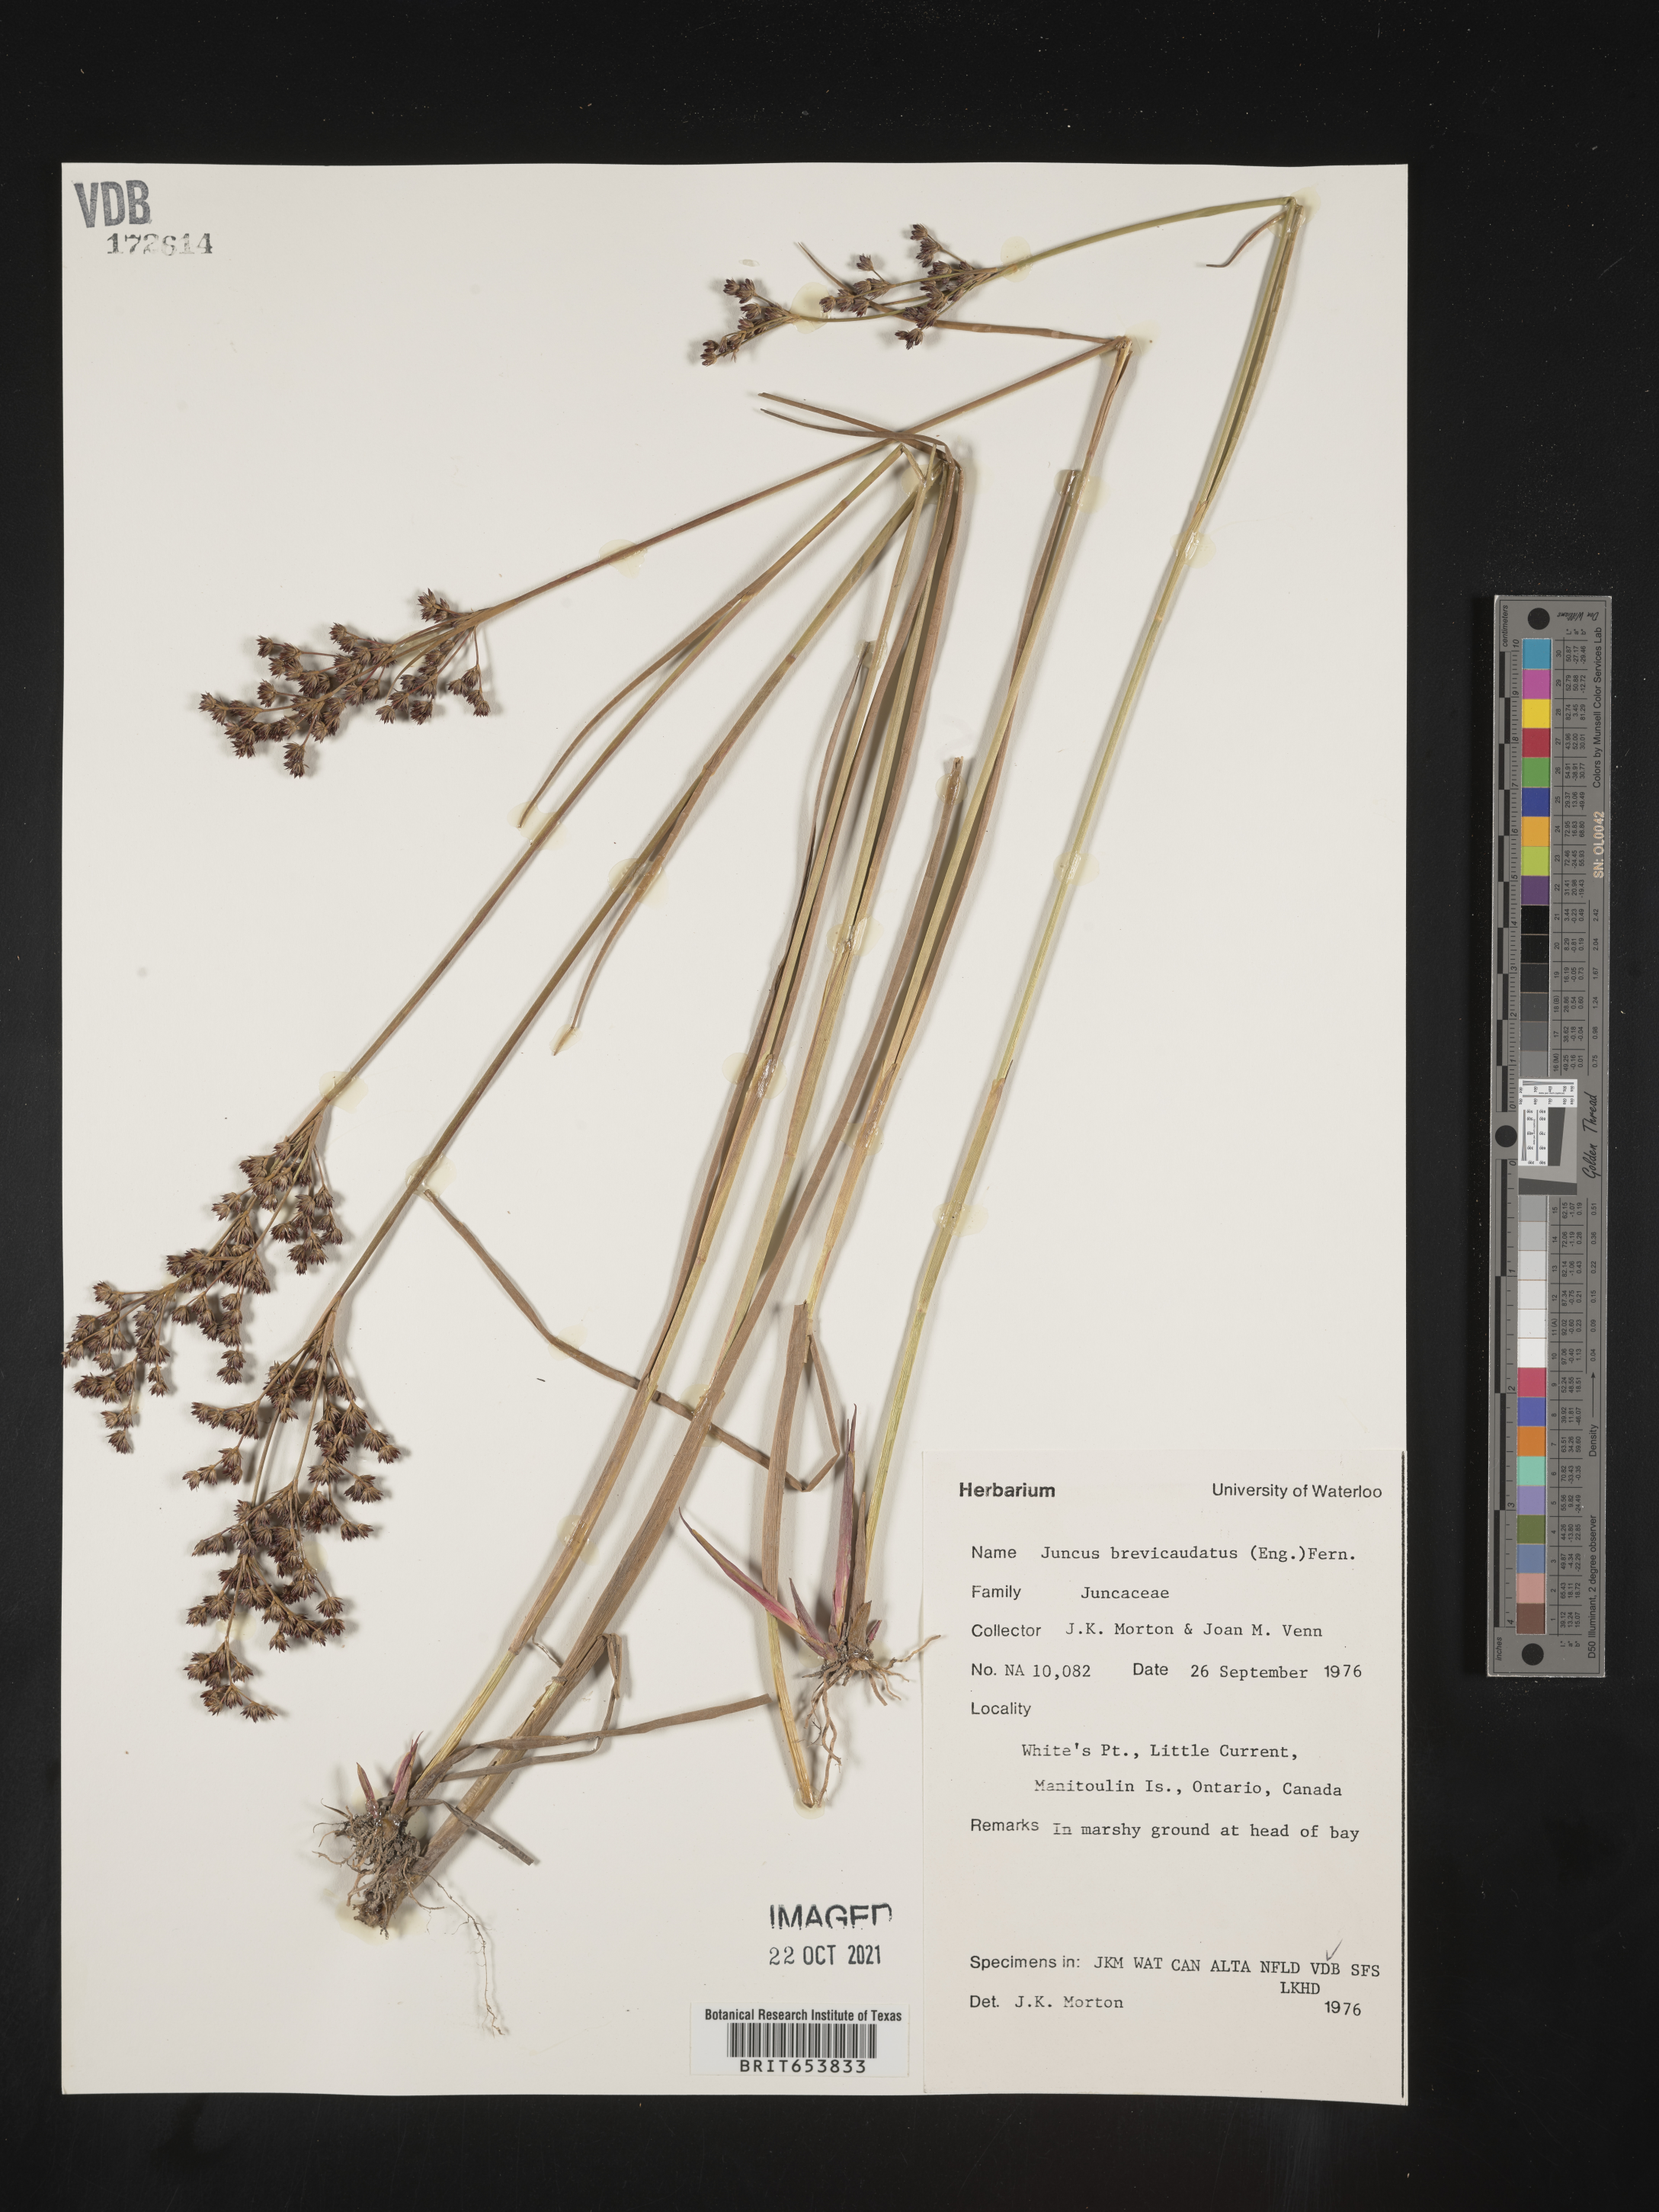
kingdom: Plantae
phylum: Tracheophyta
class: Liliopsida
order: Poales
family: Juncaceae
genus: Juncus
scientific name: Juncus brevicaudatus
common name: Narrow-panicle rush
